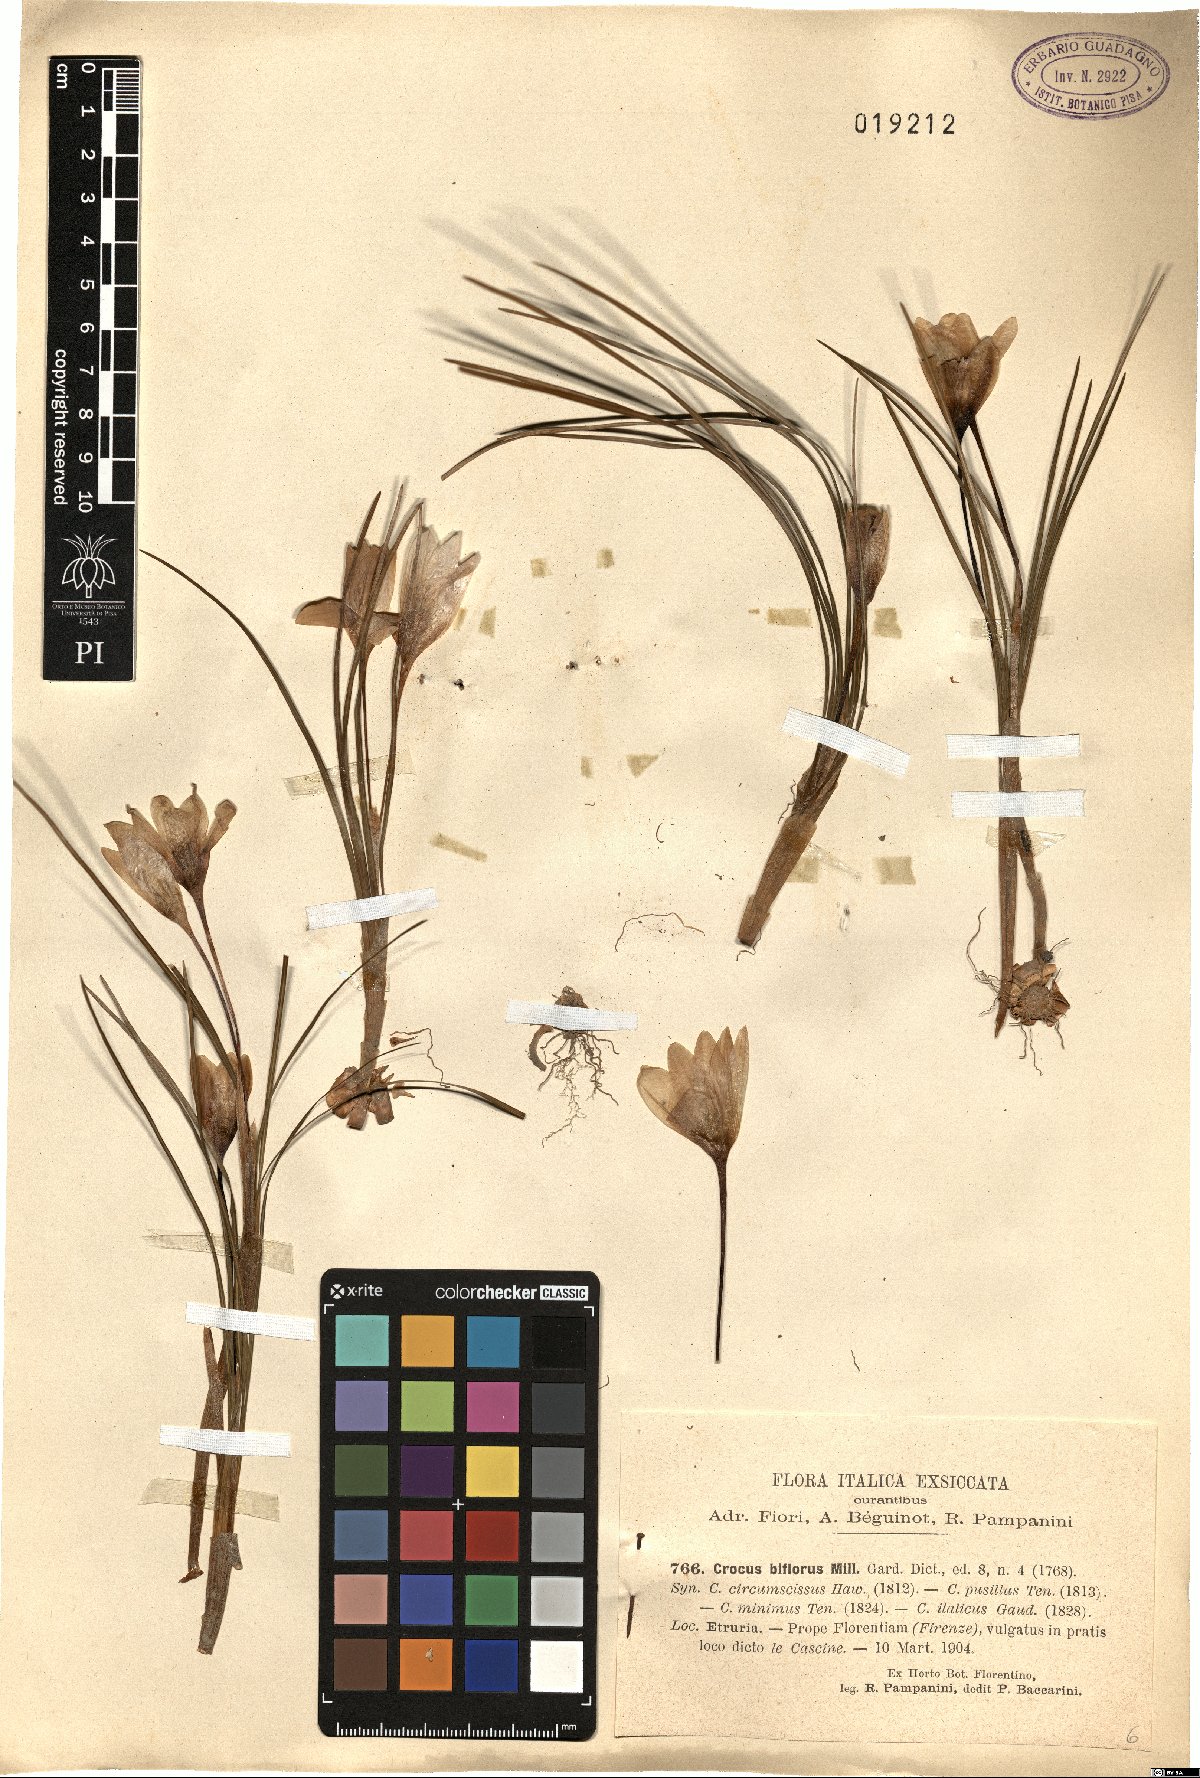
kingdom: Plantae
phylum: Tracheophyta
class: Liliopsida
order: Asparagales
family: Iridaceae
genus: Crocus
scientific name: Crocus biflorus
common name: Silvery crocus
